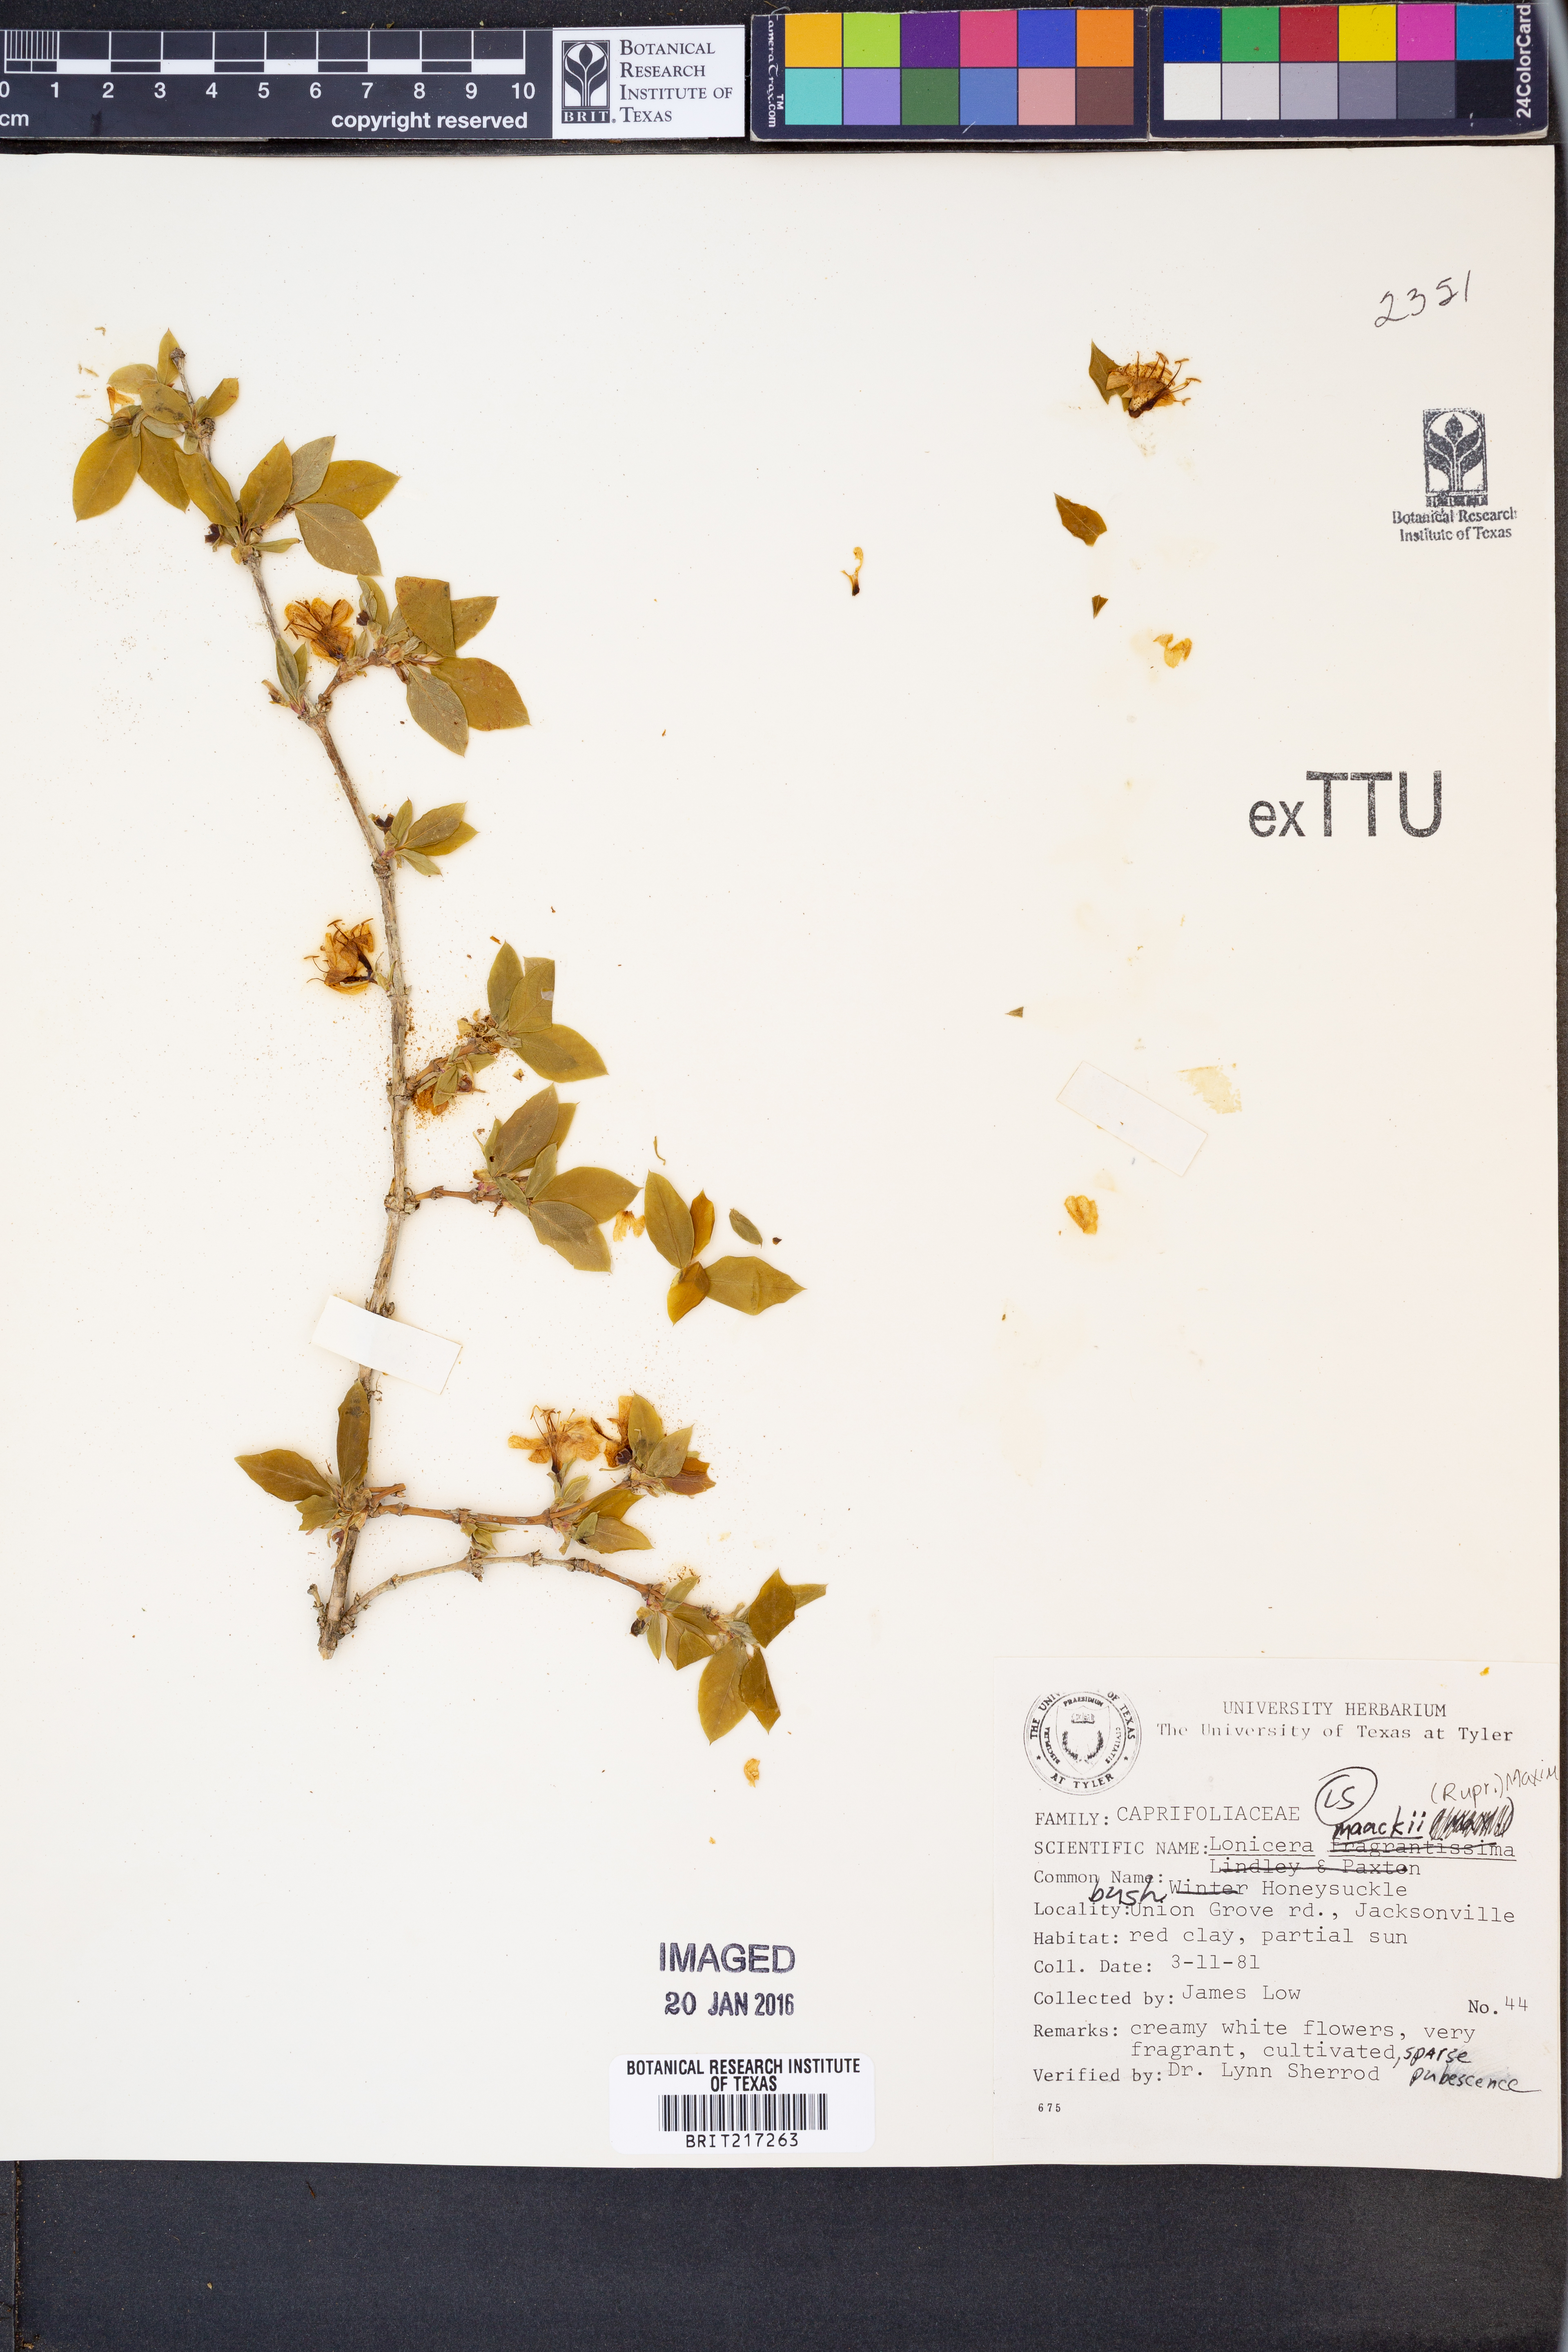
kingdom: Plantae
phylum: Tracheophyta
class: Magnoliopsida
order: Dipsacales
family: Caprifoliaceae
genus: Lonicera
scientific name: Lonicera maackii
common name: Amur honeysuckle
